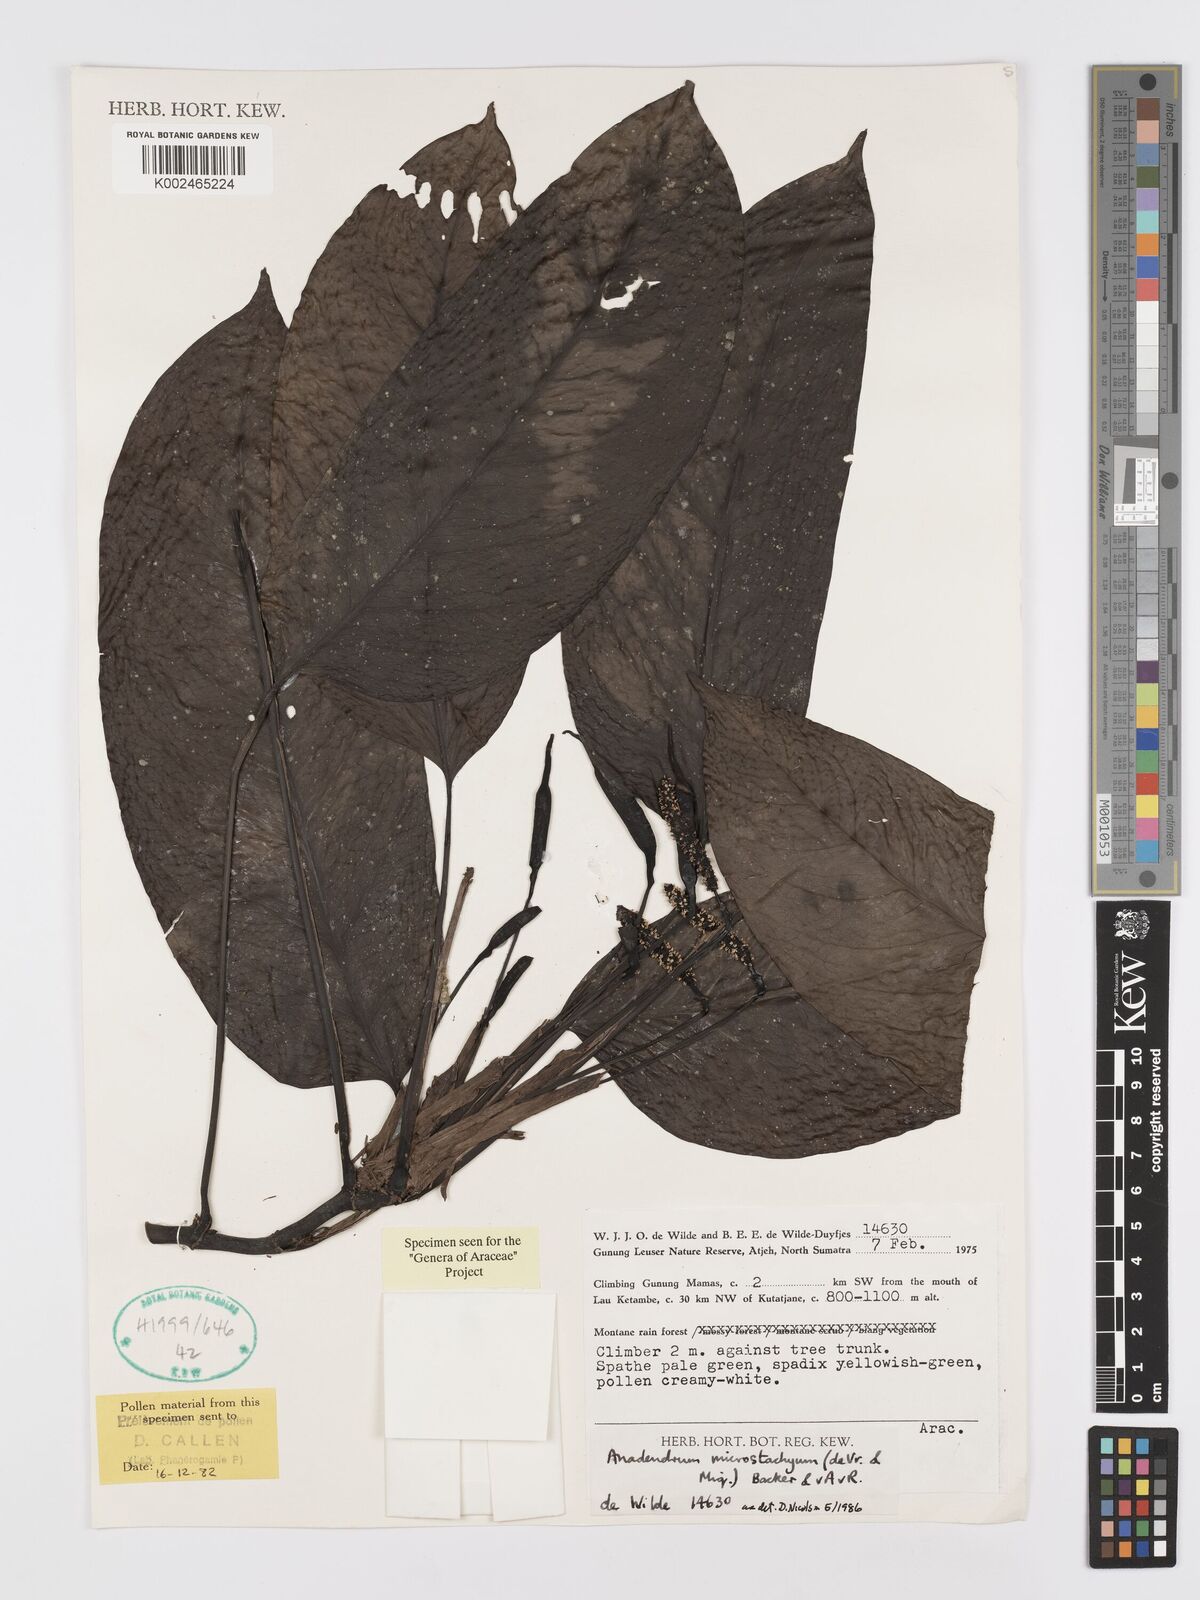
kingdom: Plantae
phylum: Tracheophyta
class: Liliopsida
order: Alismatales
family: Araceae
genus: Anadendrum
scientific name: Anadendrum microstachyum
